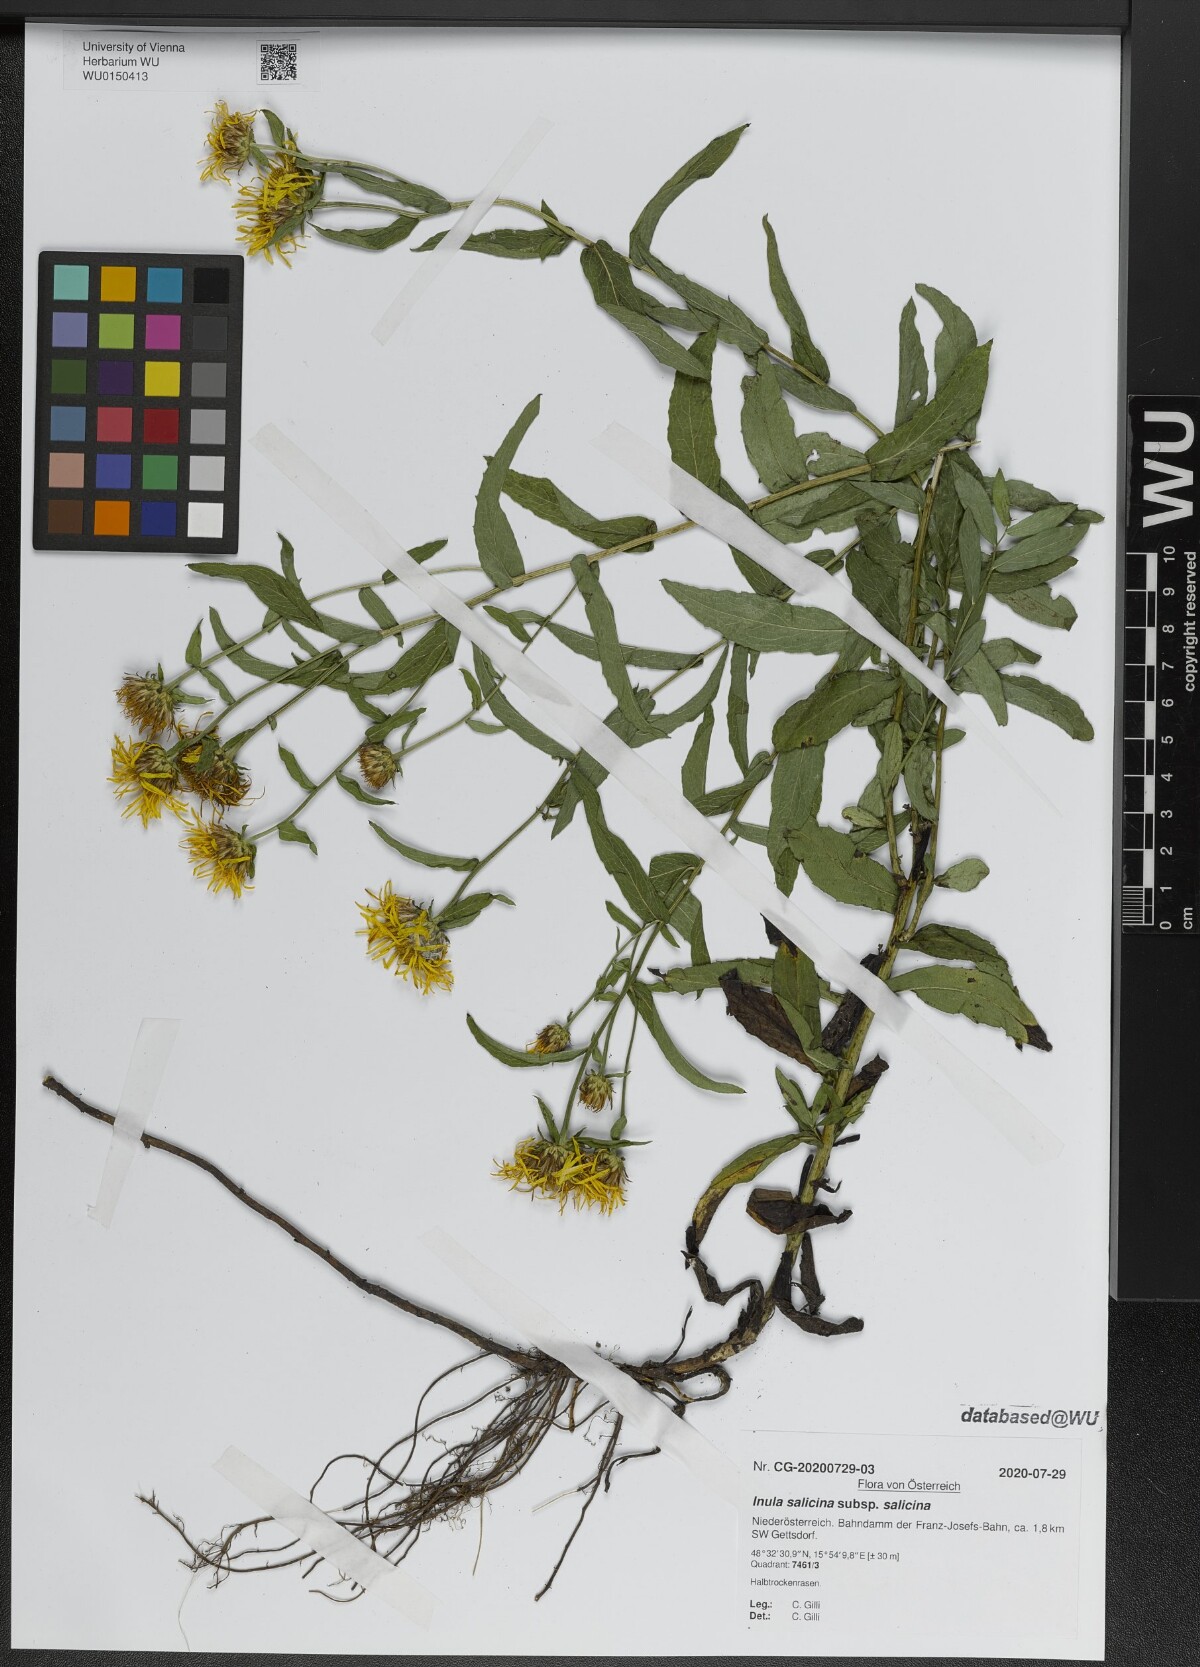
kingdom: Plantae
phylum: Tracheophyta
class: Magnoliopsida
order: Asterales
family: Asteraceae
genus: Pentanema
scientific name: Pentanema salicinum
